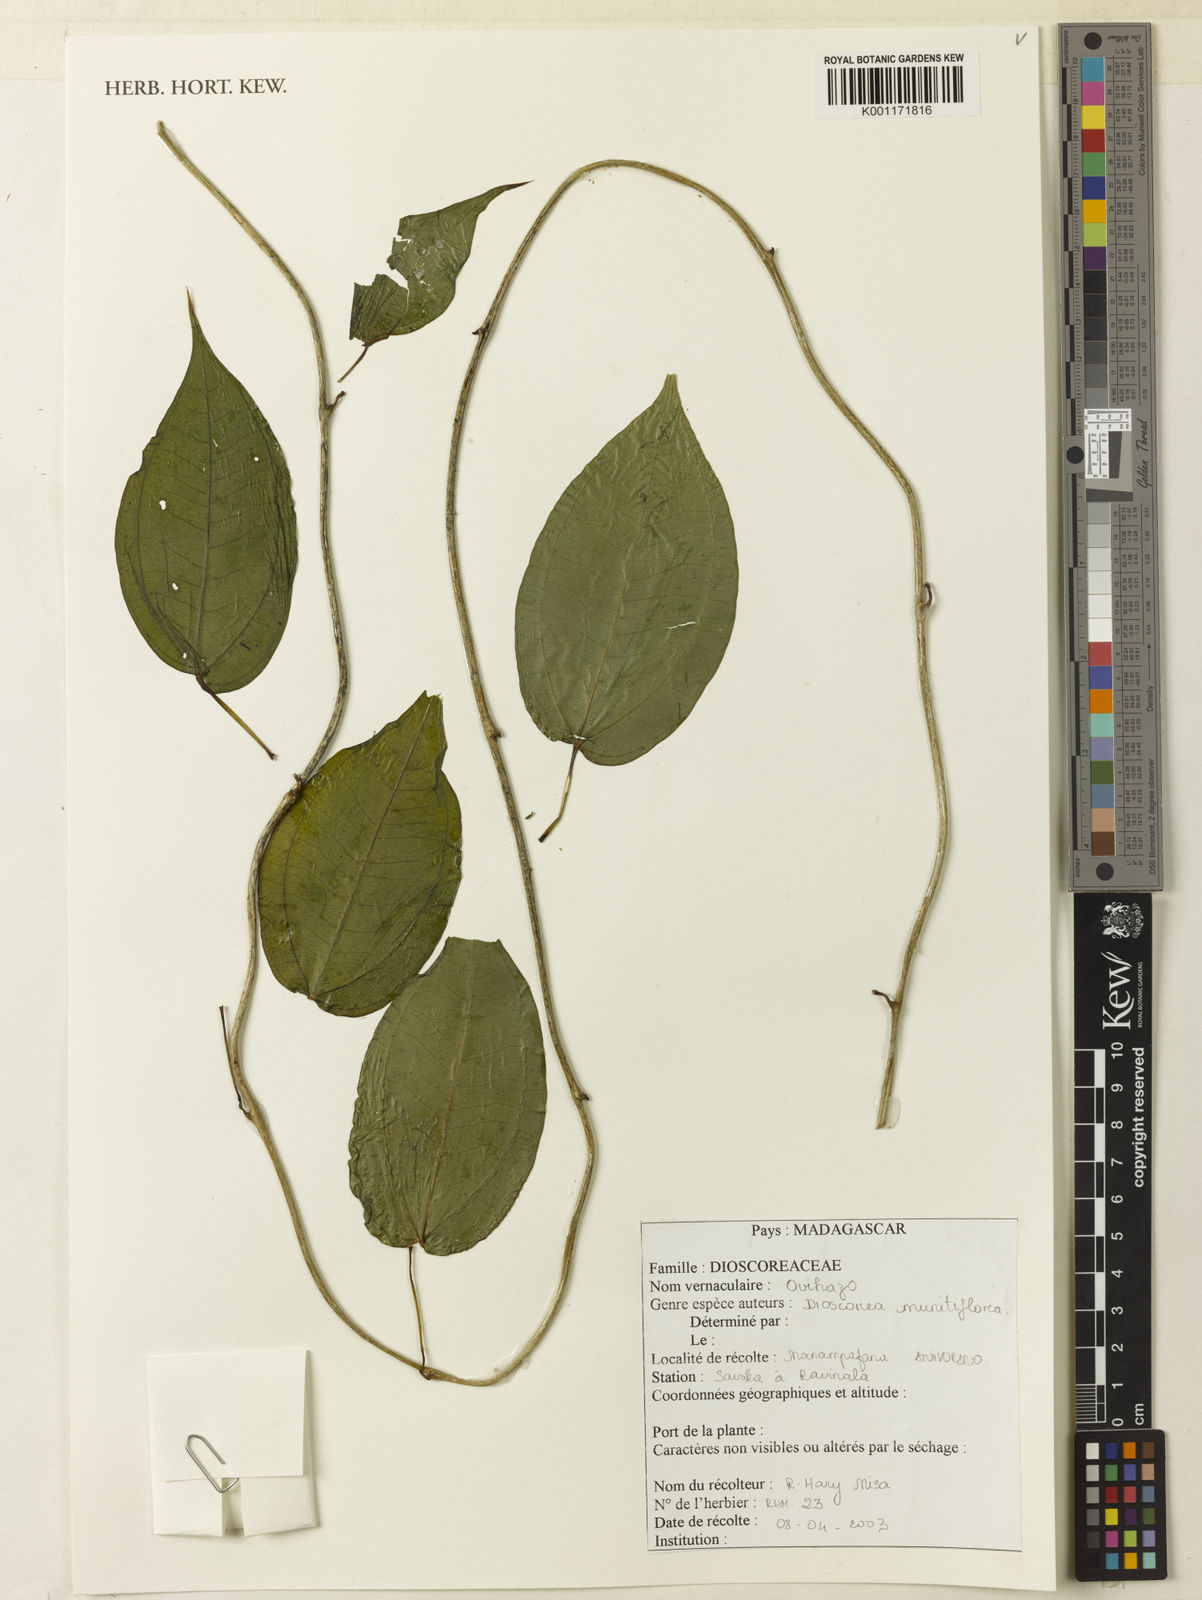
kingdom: Plantae
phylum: Tracheophyta
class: Liliopsida
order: Dioscoreales
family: Dioscoreaceae
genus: Dioscorea
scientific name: Dioscorea minutiflora
